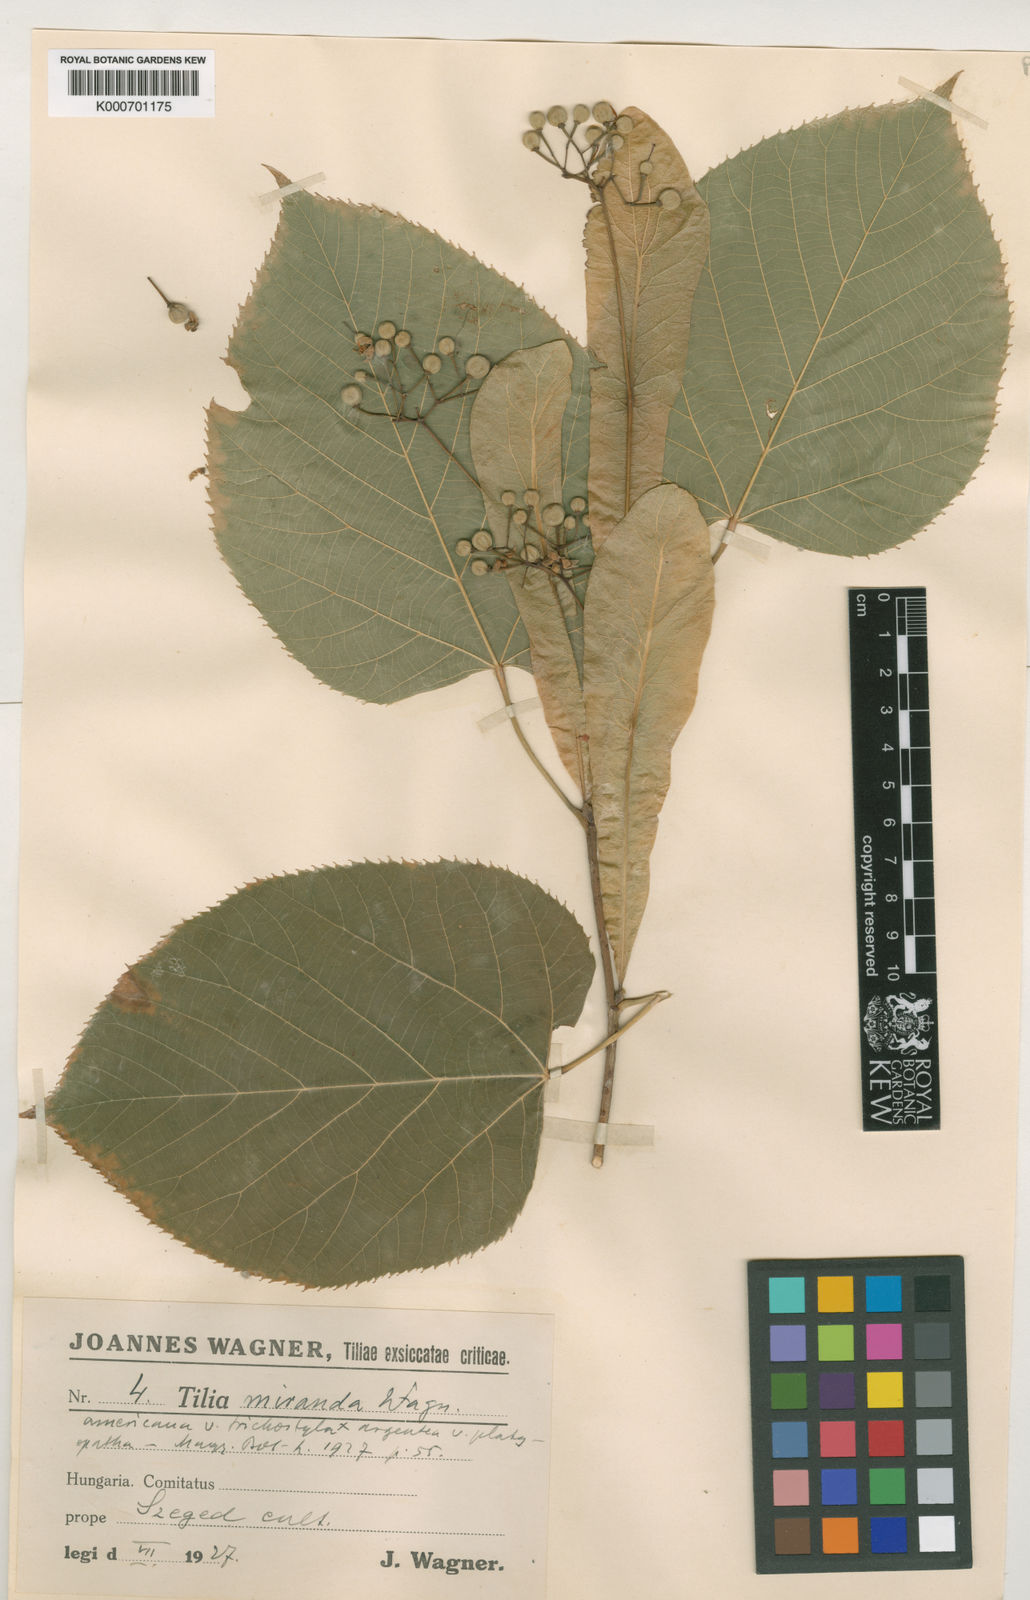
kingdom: Plantae
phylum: Tracheophyta
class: Magnoliopsida
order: Malvales
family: Malvaceae
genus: Tilia
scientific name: Tilia moltkei
